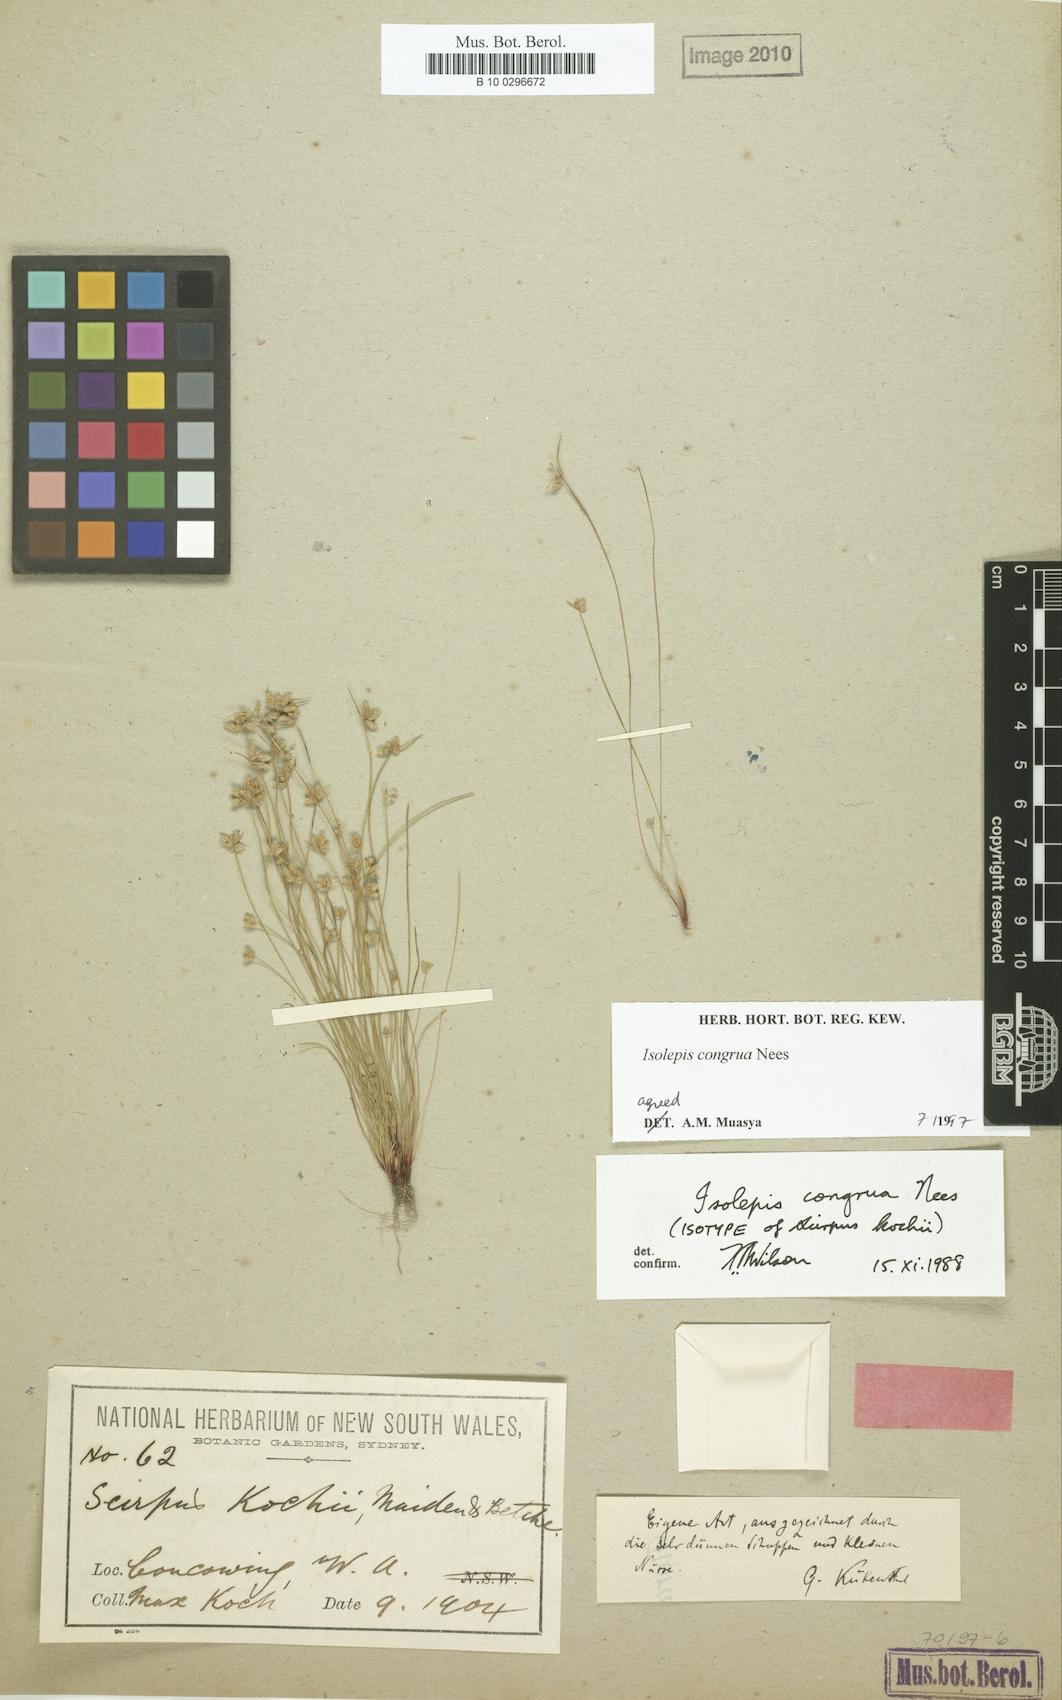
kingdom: Plantae
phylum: Tracheophyta
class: Liliopsida
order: Poales
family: Cyperaceae
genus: Isolepis
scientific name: Isolepis congrua
